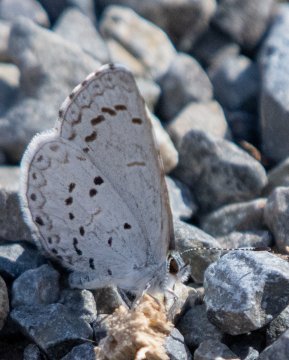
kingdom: Animalia
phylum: Arthropoda
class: Insecta
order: Lepidoptera
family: Lycaenidae
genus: Celastrina
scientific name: Celastrina ladon
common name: Spring Azure
